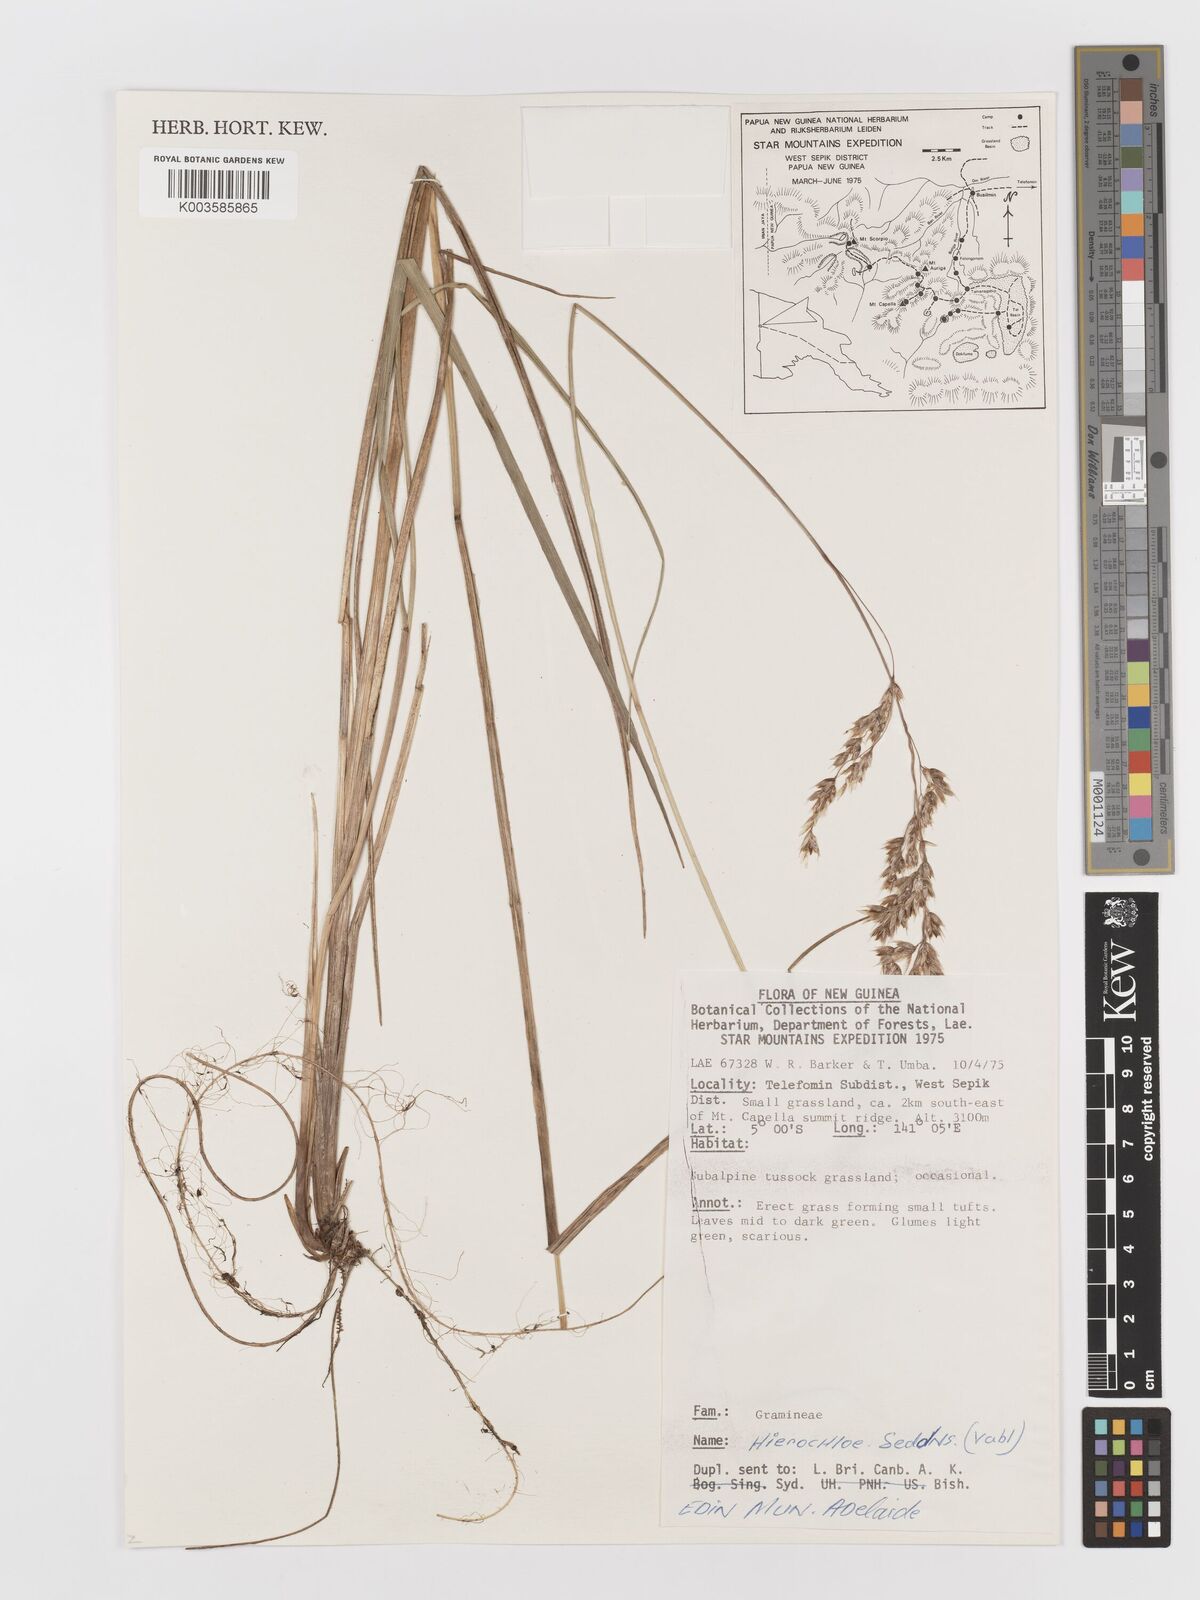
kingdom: Plantae
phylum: Tracheophyta
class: Liliopsida
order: Poales
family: Poaceae
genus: Anthoxanthum
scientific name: Anthoxanthum redolens
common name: Sweet holy grass
